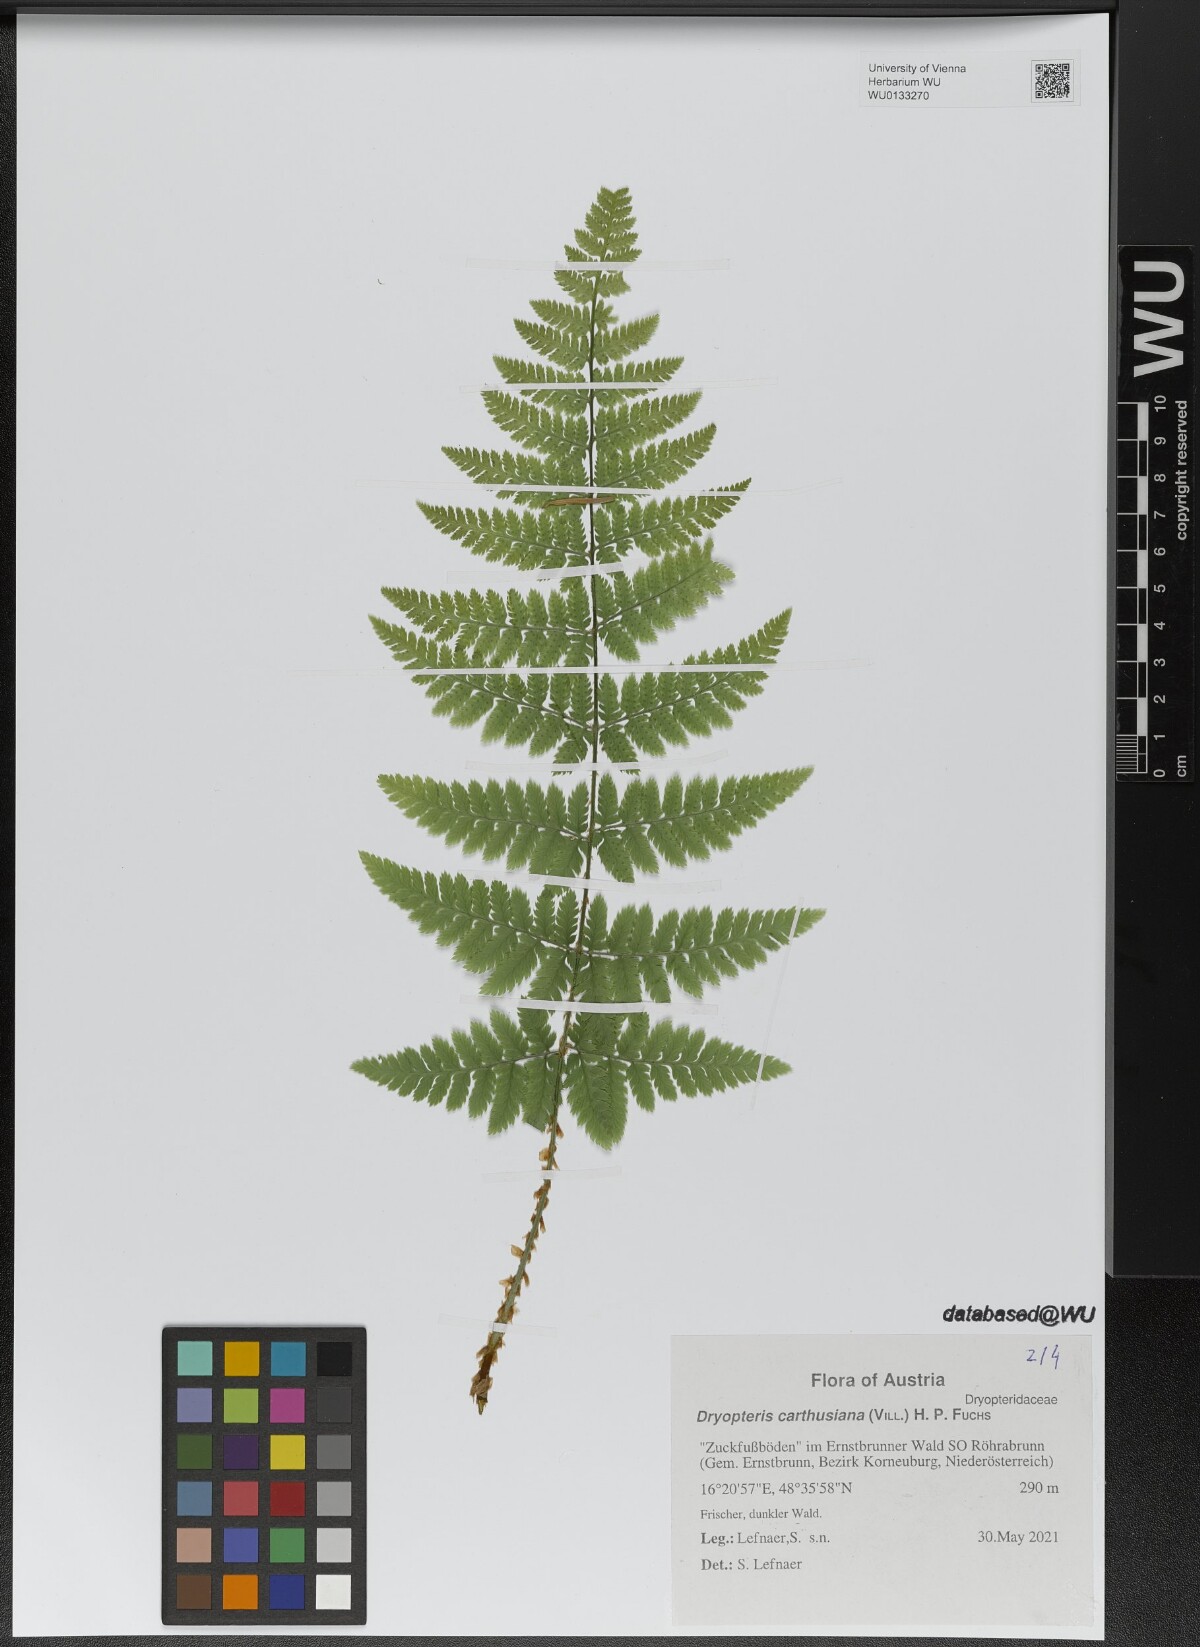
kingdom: Plantae
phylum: Tracheophyta
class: Polypodiopsida
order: Polypodiales
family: Dryopteridaceae
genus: Dryopteris
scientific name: Dryopteris carthusiana
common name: Narrow buckler-fern
